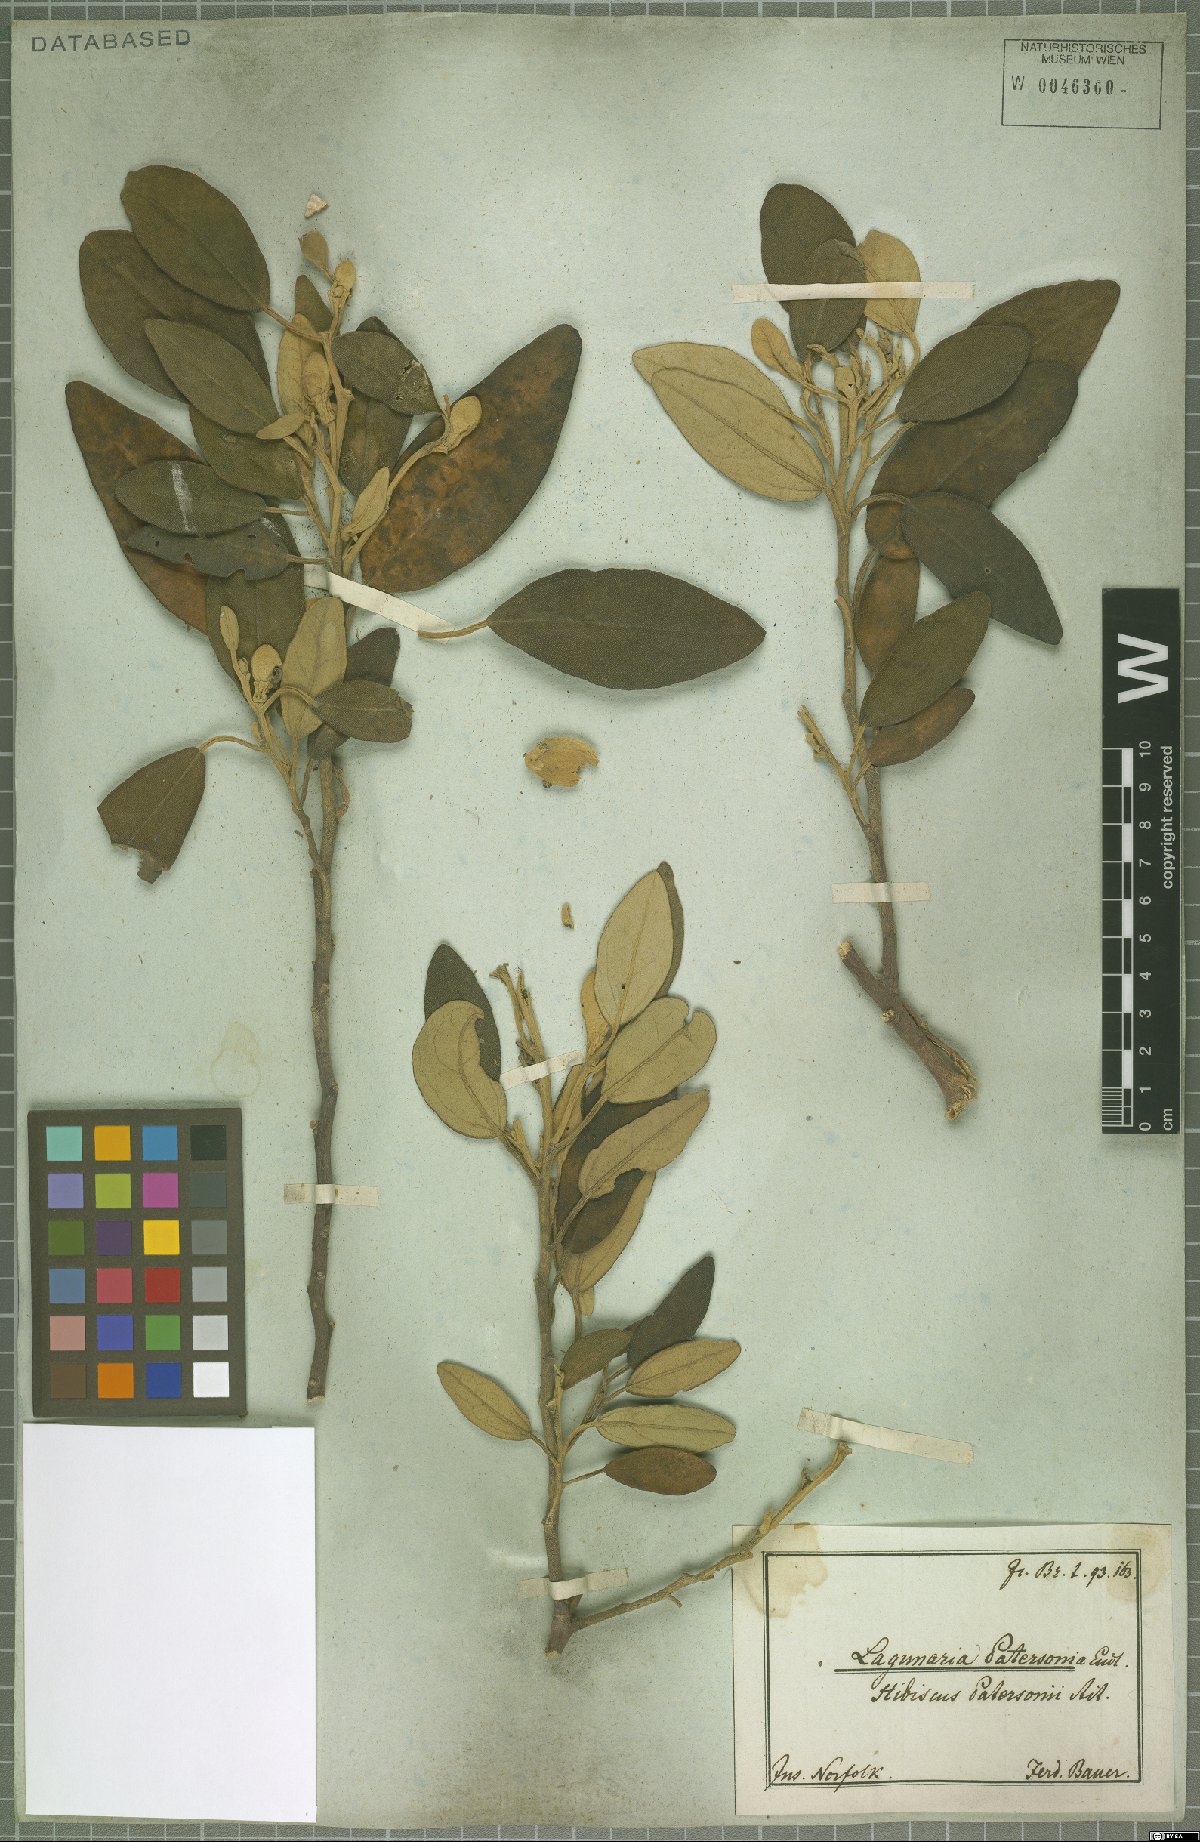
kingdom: Plantae
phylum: Tracheophyta
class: Magnoliopsida
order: Malvales
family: Malvaceae
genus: Lagunaria
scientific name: Lagunaria patersonia
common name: Cow itch tree
